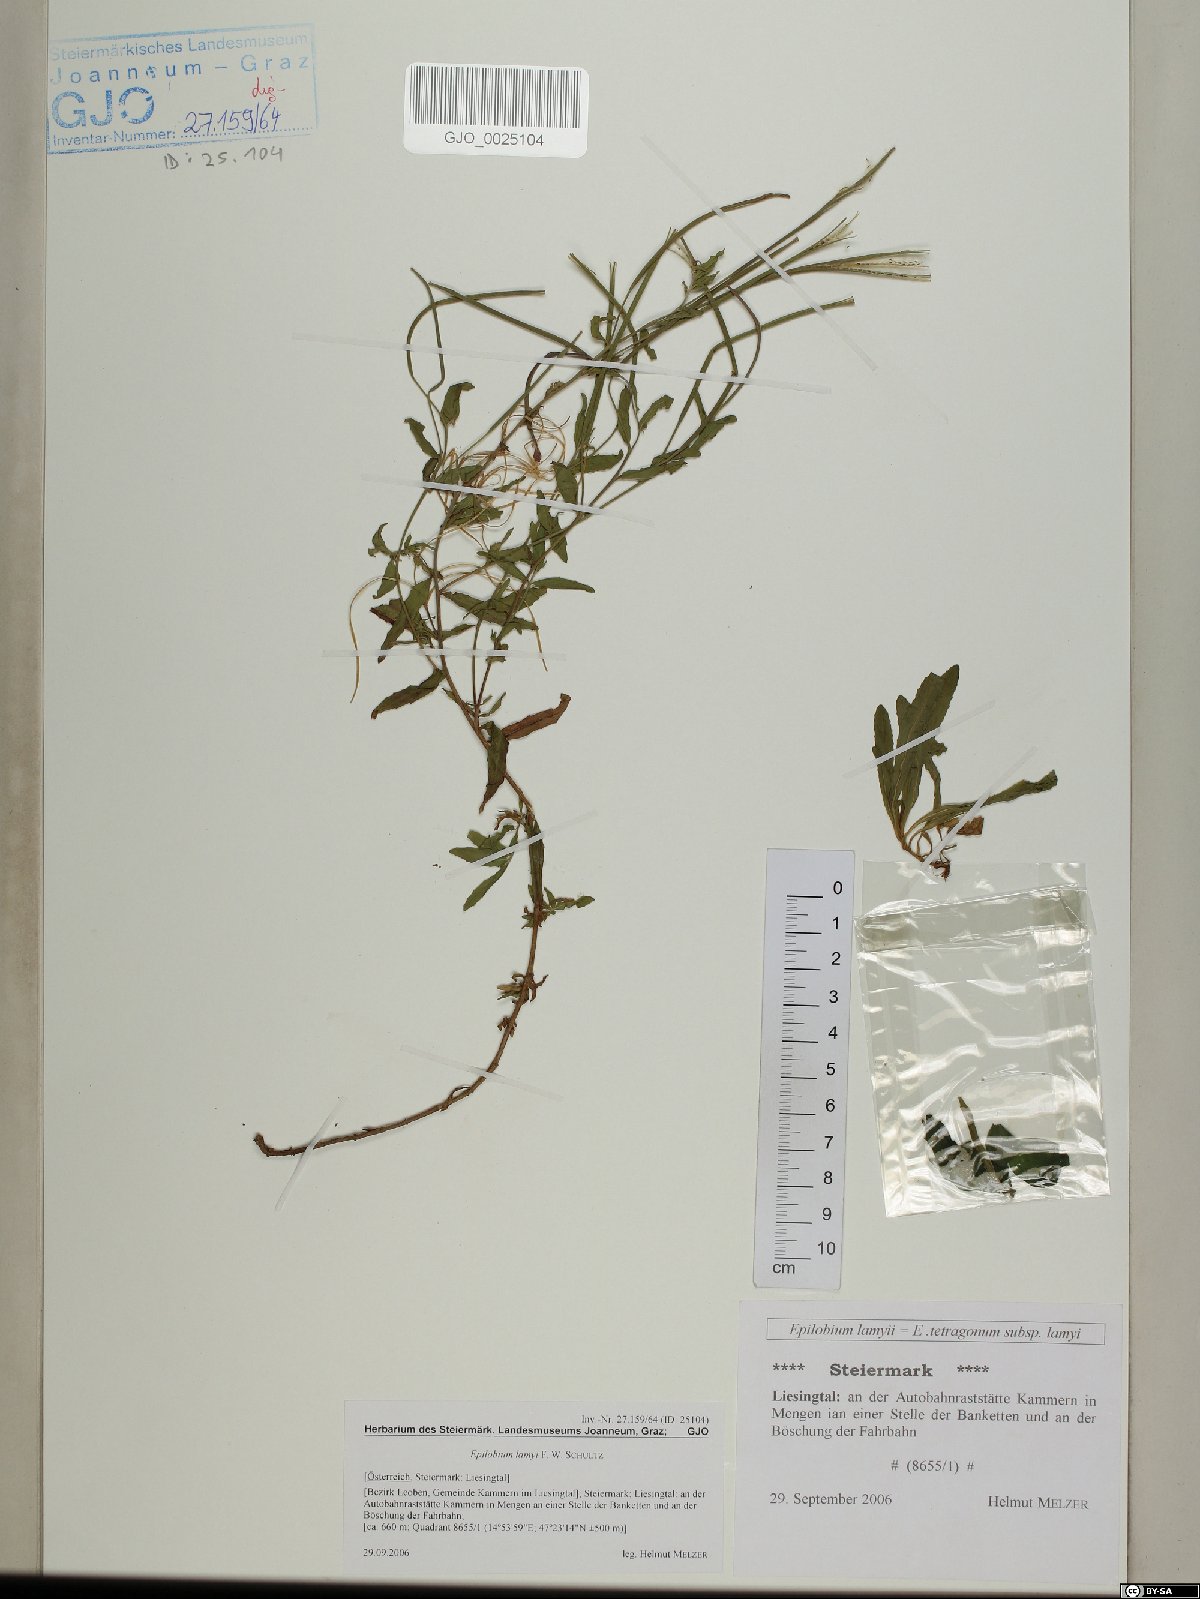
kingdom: Plantae
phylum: Tracheophyta
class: Magnoliopsida
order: Myrtales
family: Onagraceae
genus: Epilobium
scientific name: Epilobium lamyi
